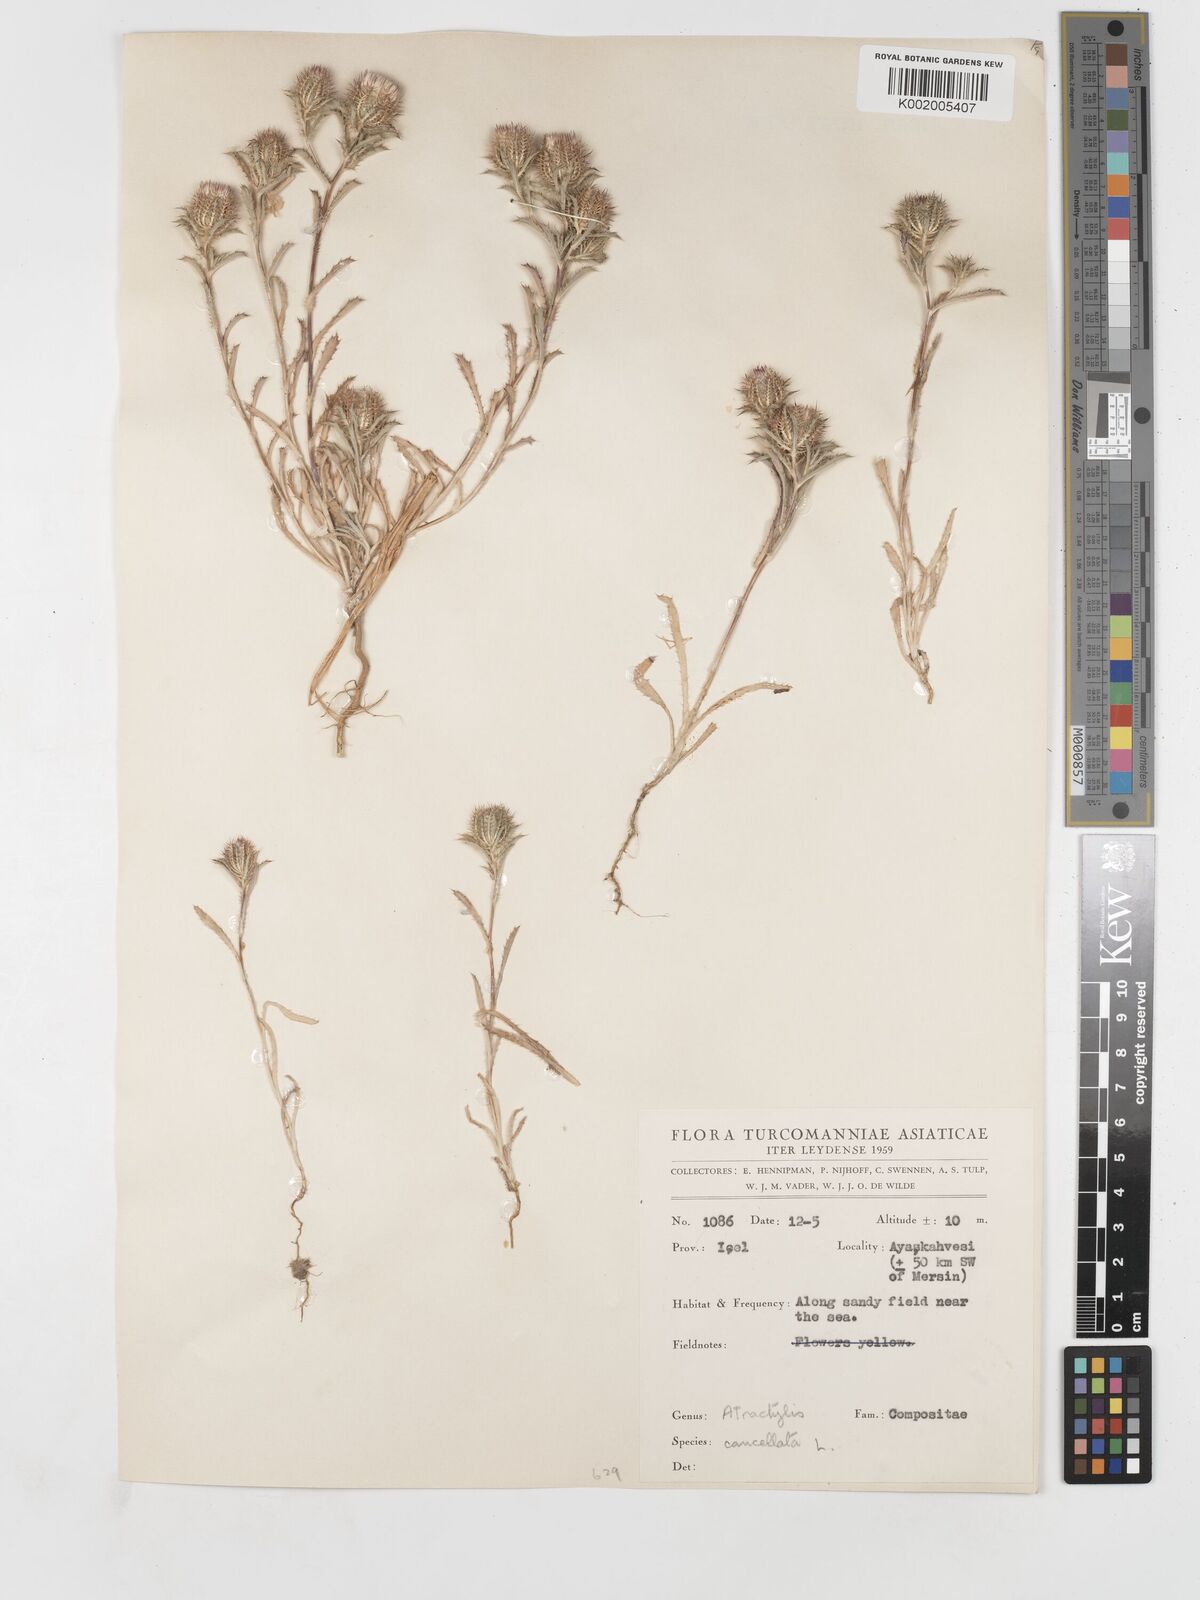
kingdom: Plantae
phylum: Tracheophyta
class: Magnoliopsida
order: Asterales
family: Asteraceae
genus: Atractylis
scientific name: Atractylis cancellata
